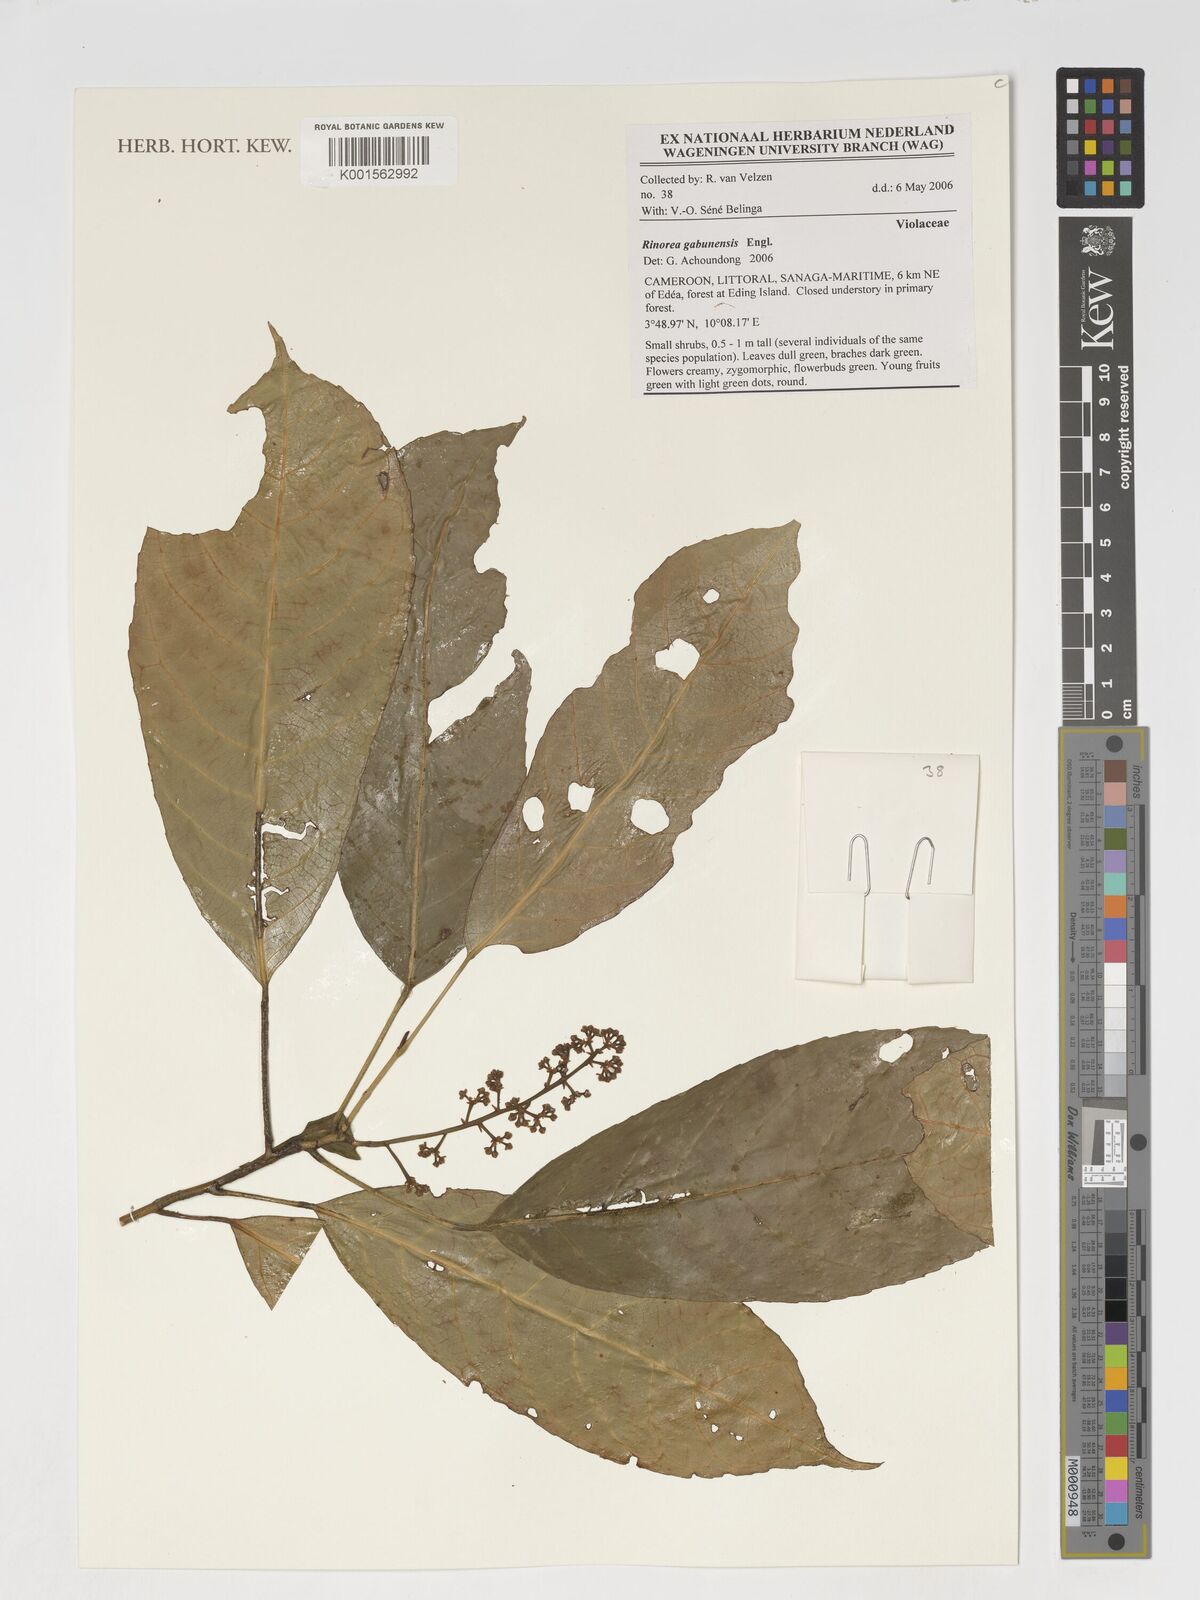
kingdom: Plantae
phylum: Tracheophyta
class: Magnoliopsida
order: Malpighiales
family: Violaceae
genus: Rinorea
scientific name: Rinorea gabunensis
